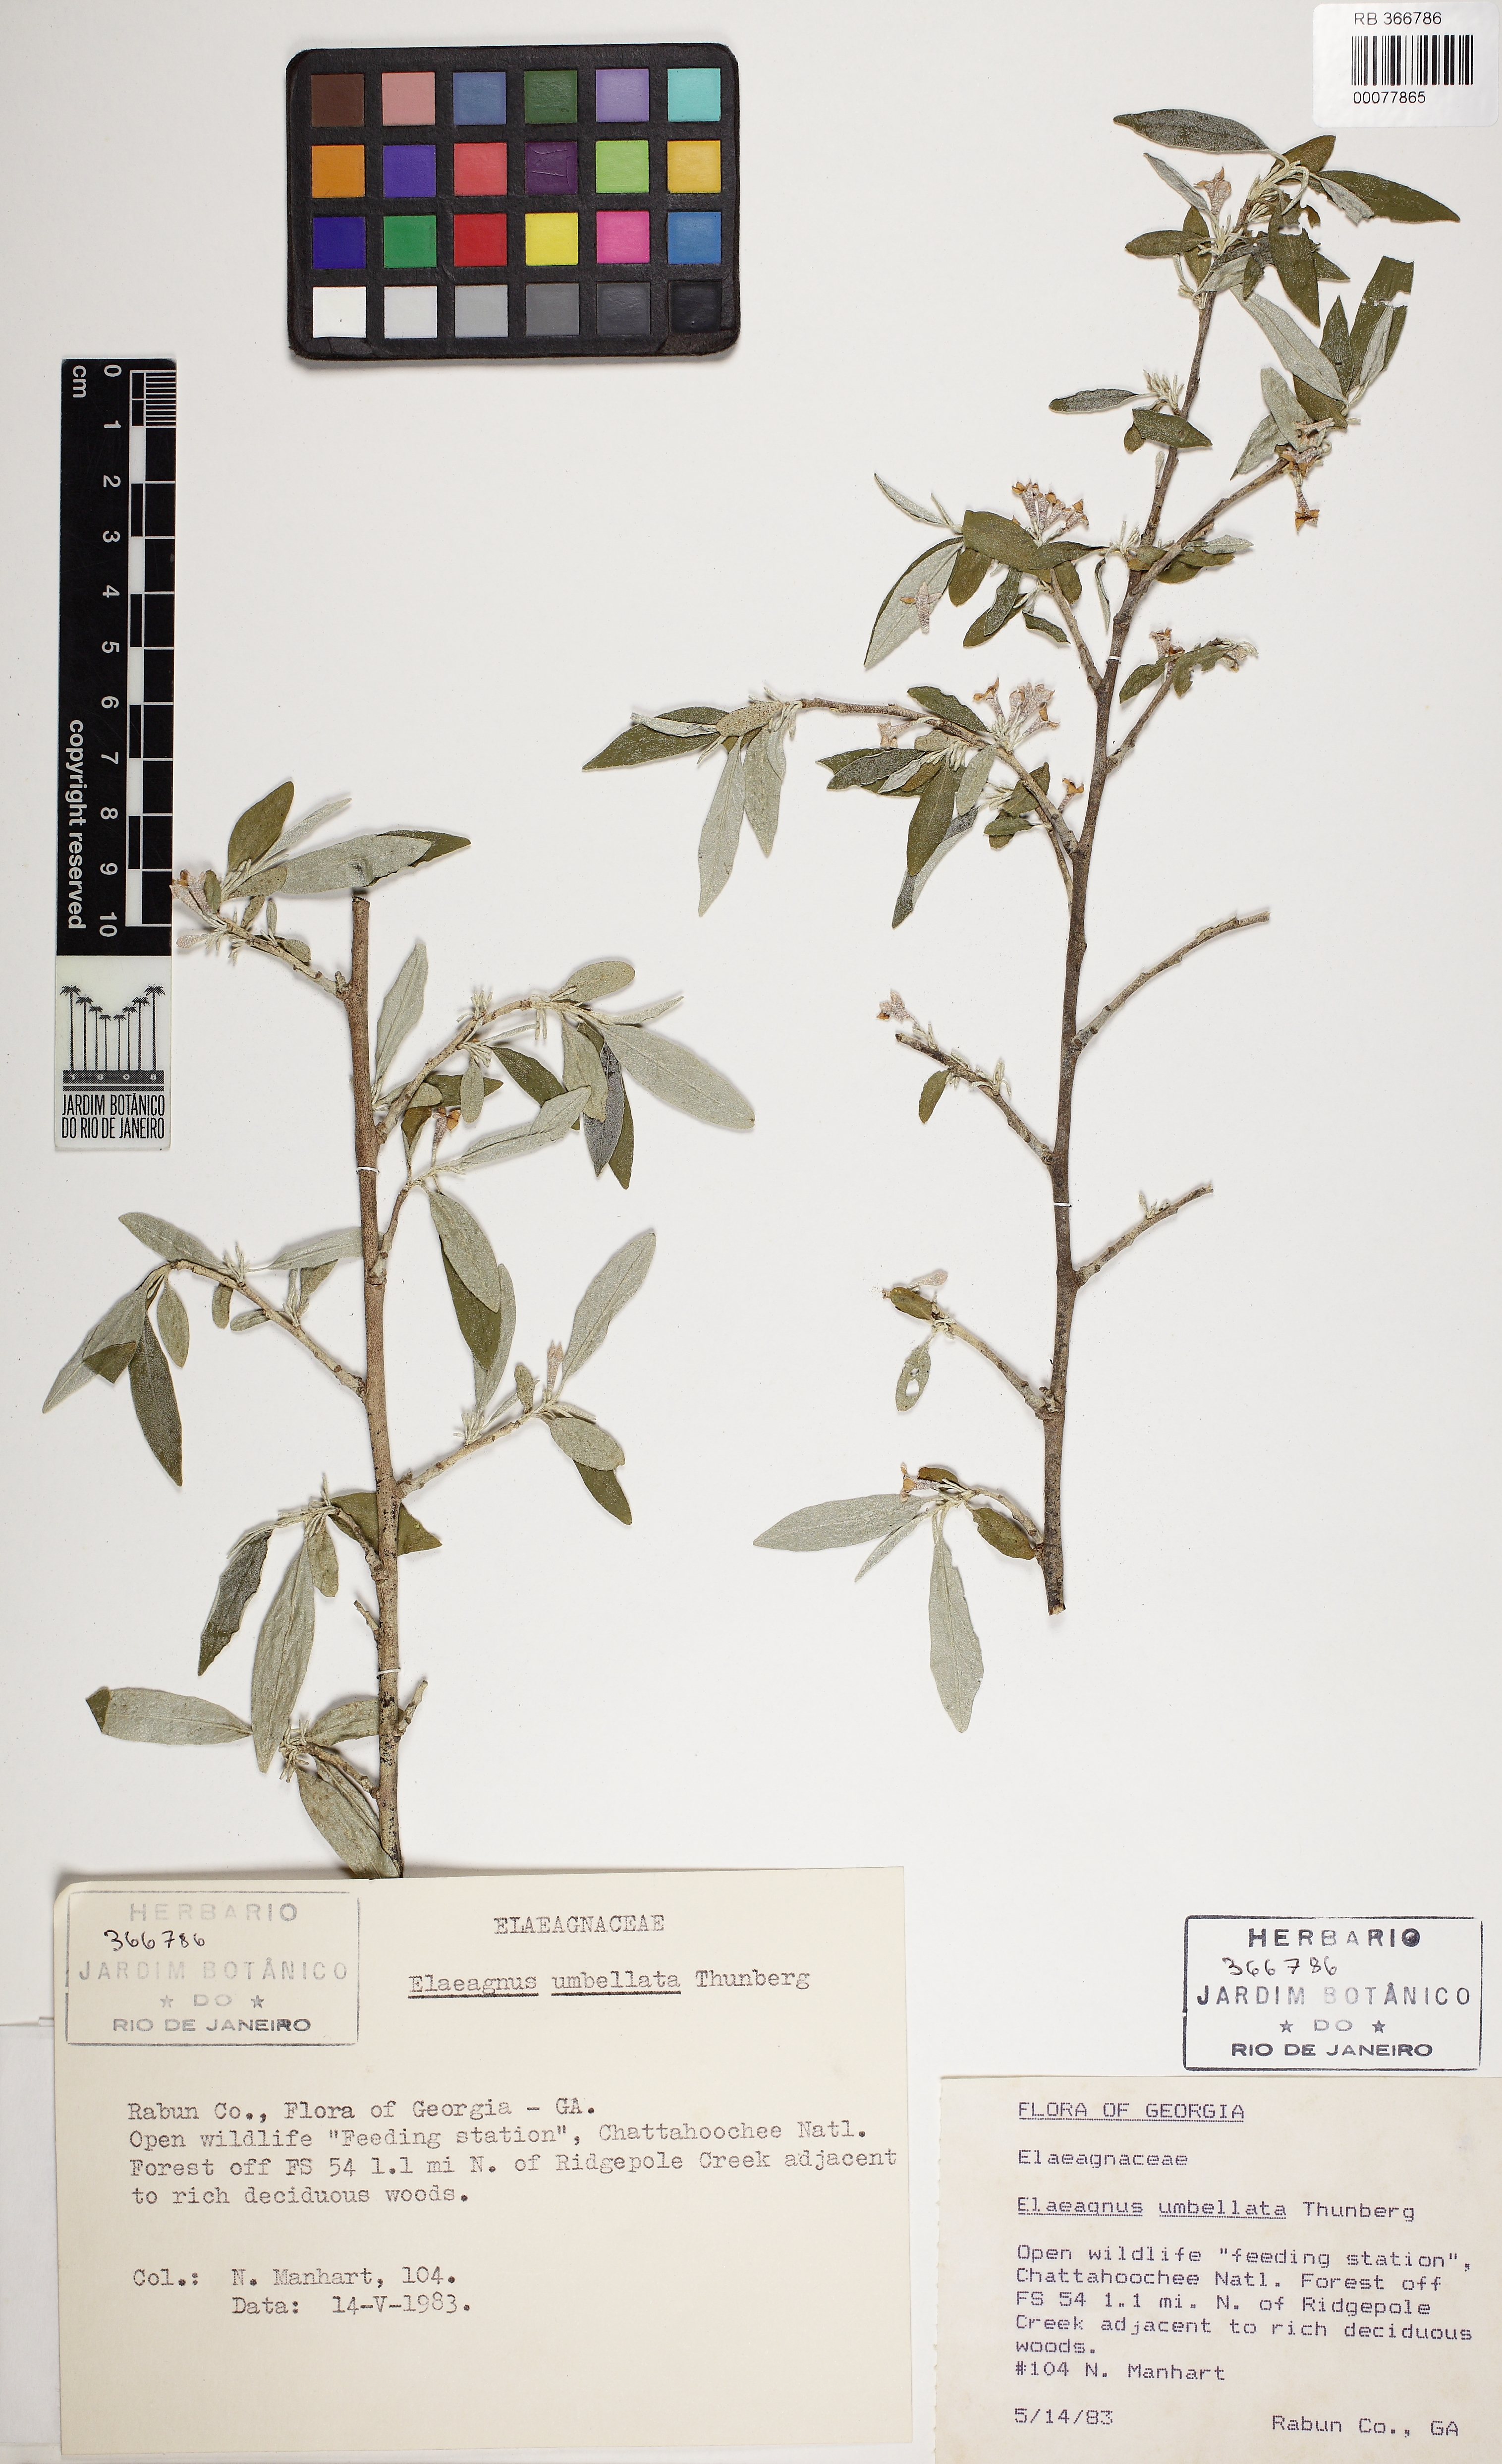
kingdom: Plantae
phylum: Tracheophyta
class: Magnoliopsida
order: Rosales
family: Elaeagnaceae
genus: Elaeagnus
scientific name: Elaeagnus umbellata
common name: Autumn olive
